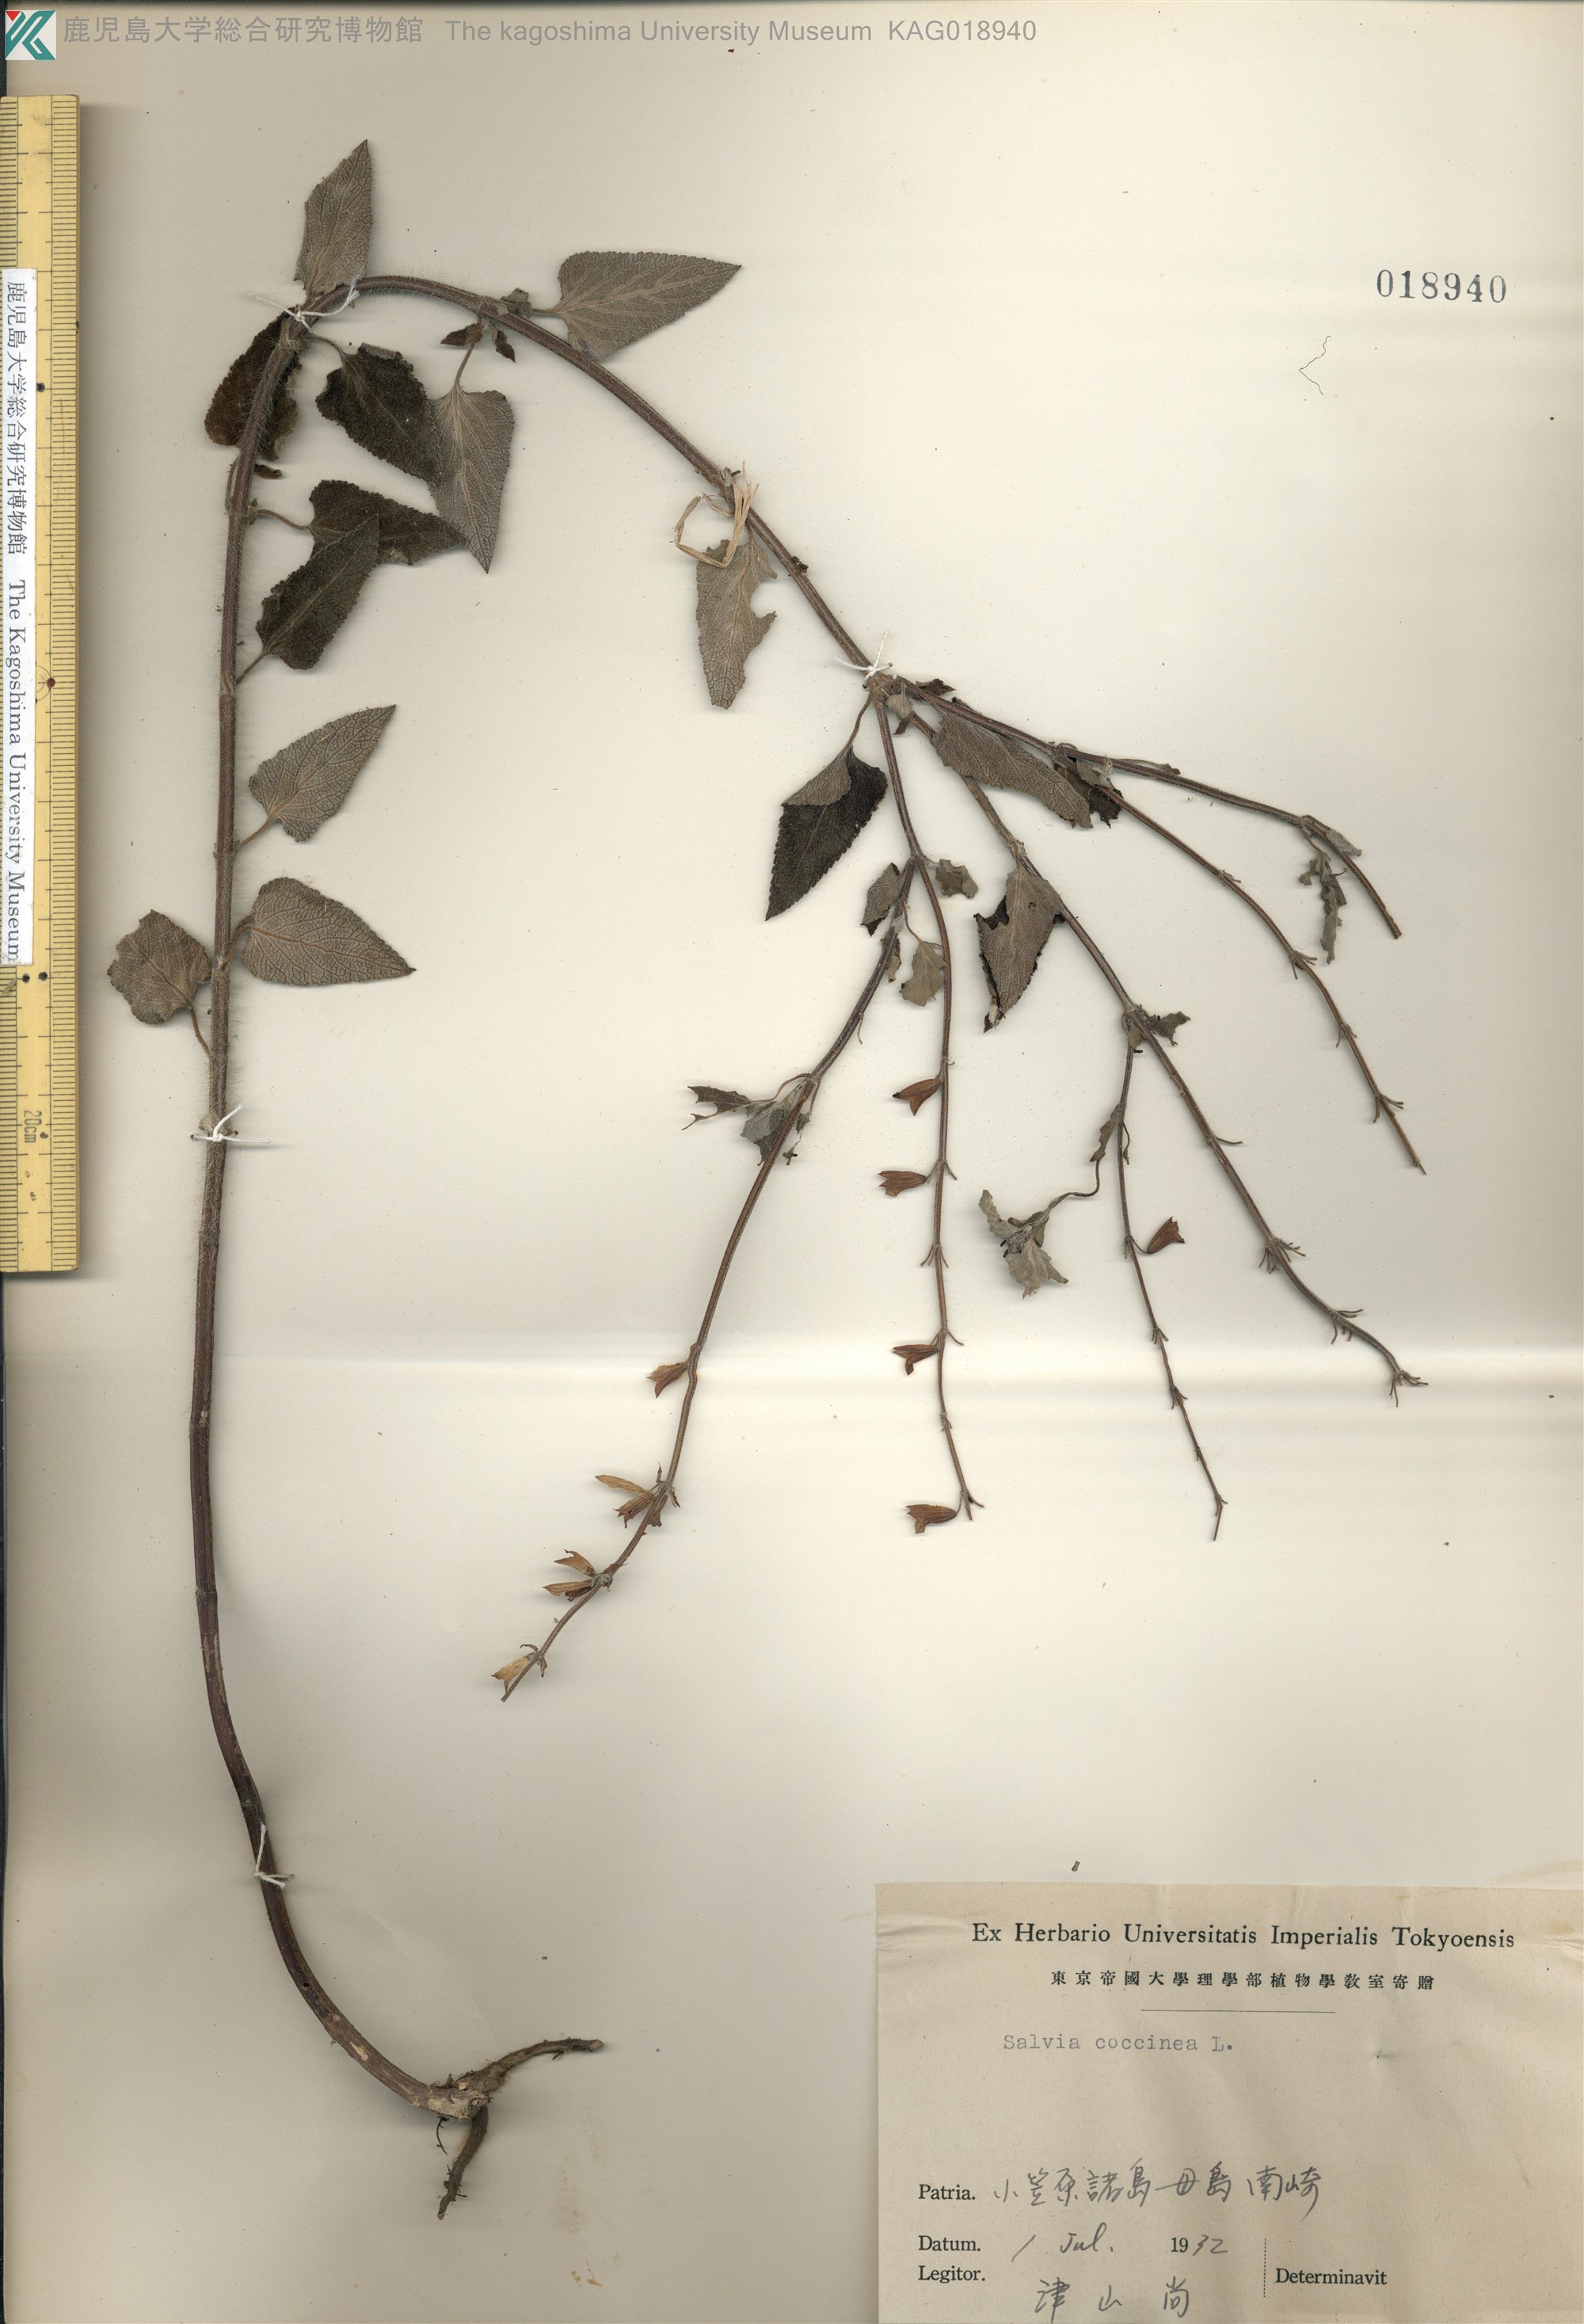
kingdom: Plantae
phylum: Tracheophyta
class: Magnoliopsida
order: Lamiales
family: Lamiaceae
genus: Salvia
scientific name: Salvia coccinea
